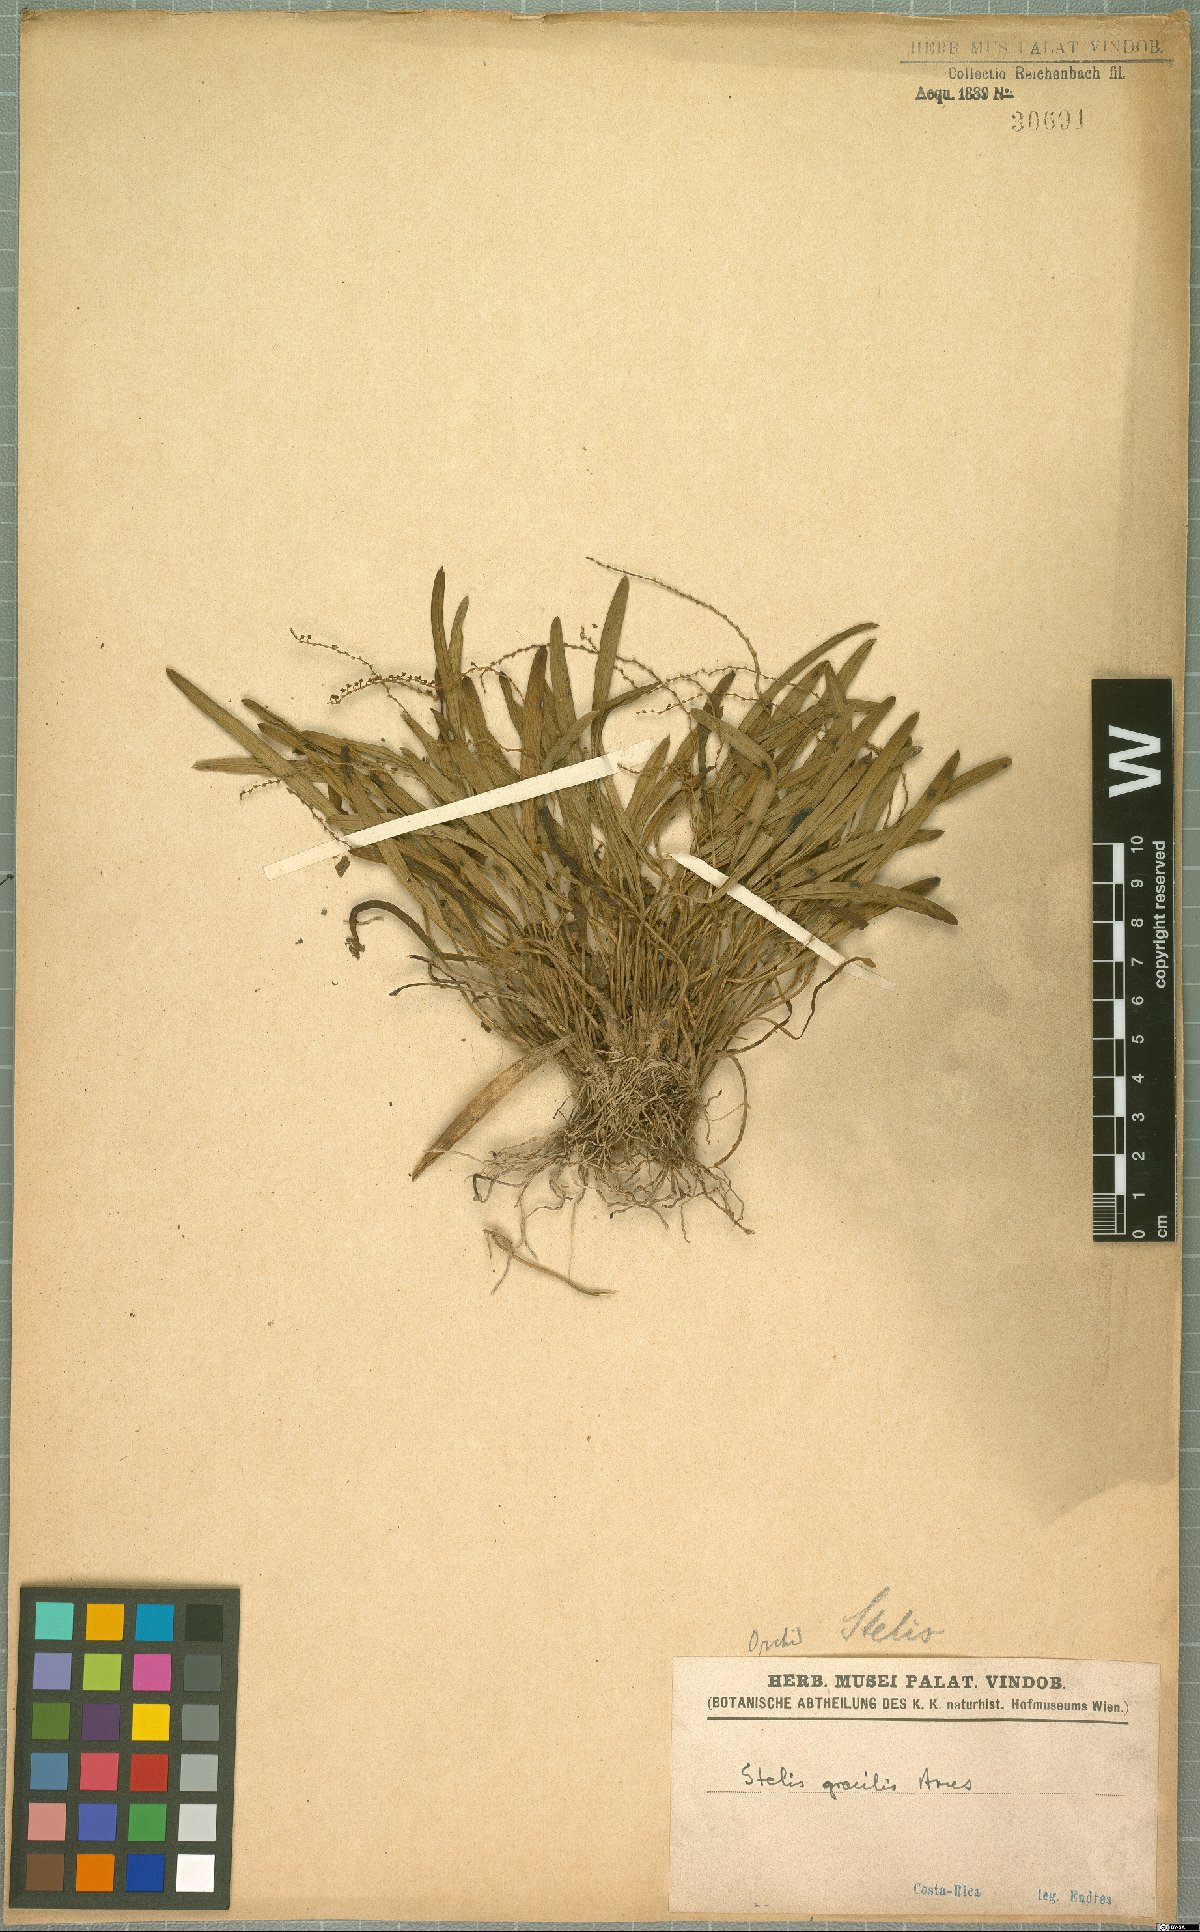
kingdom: Plantae
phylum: Tracheophyta
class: Liliopsida
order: Asparagales
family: Orchidaceae
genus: Stelis
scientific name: Stelis gracilis
